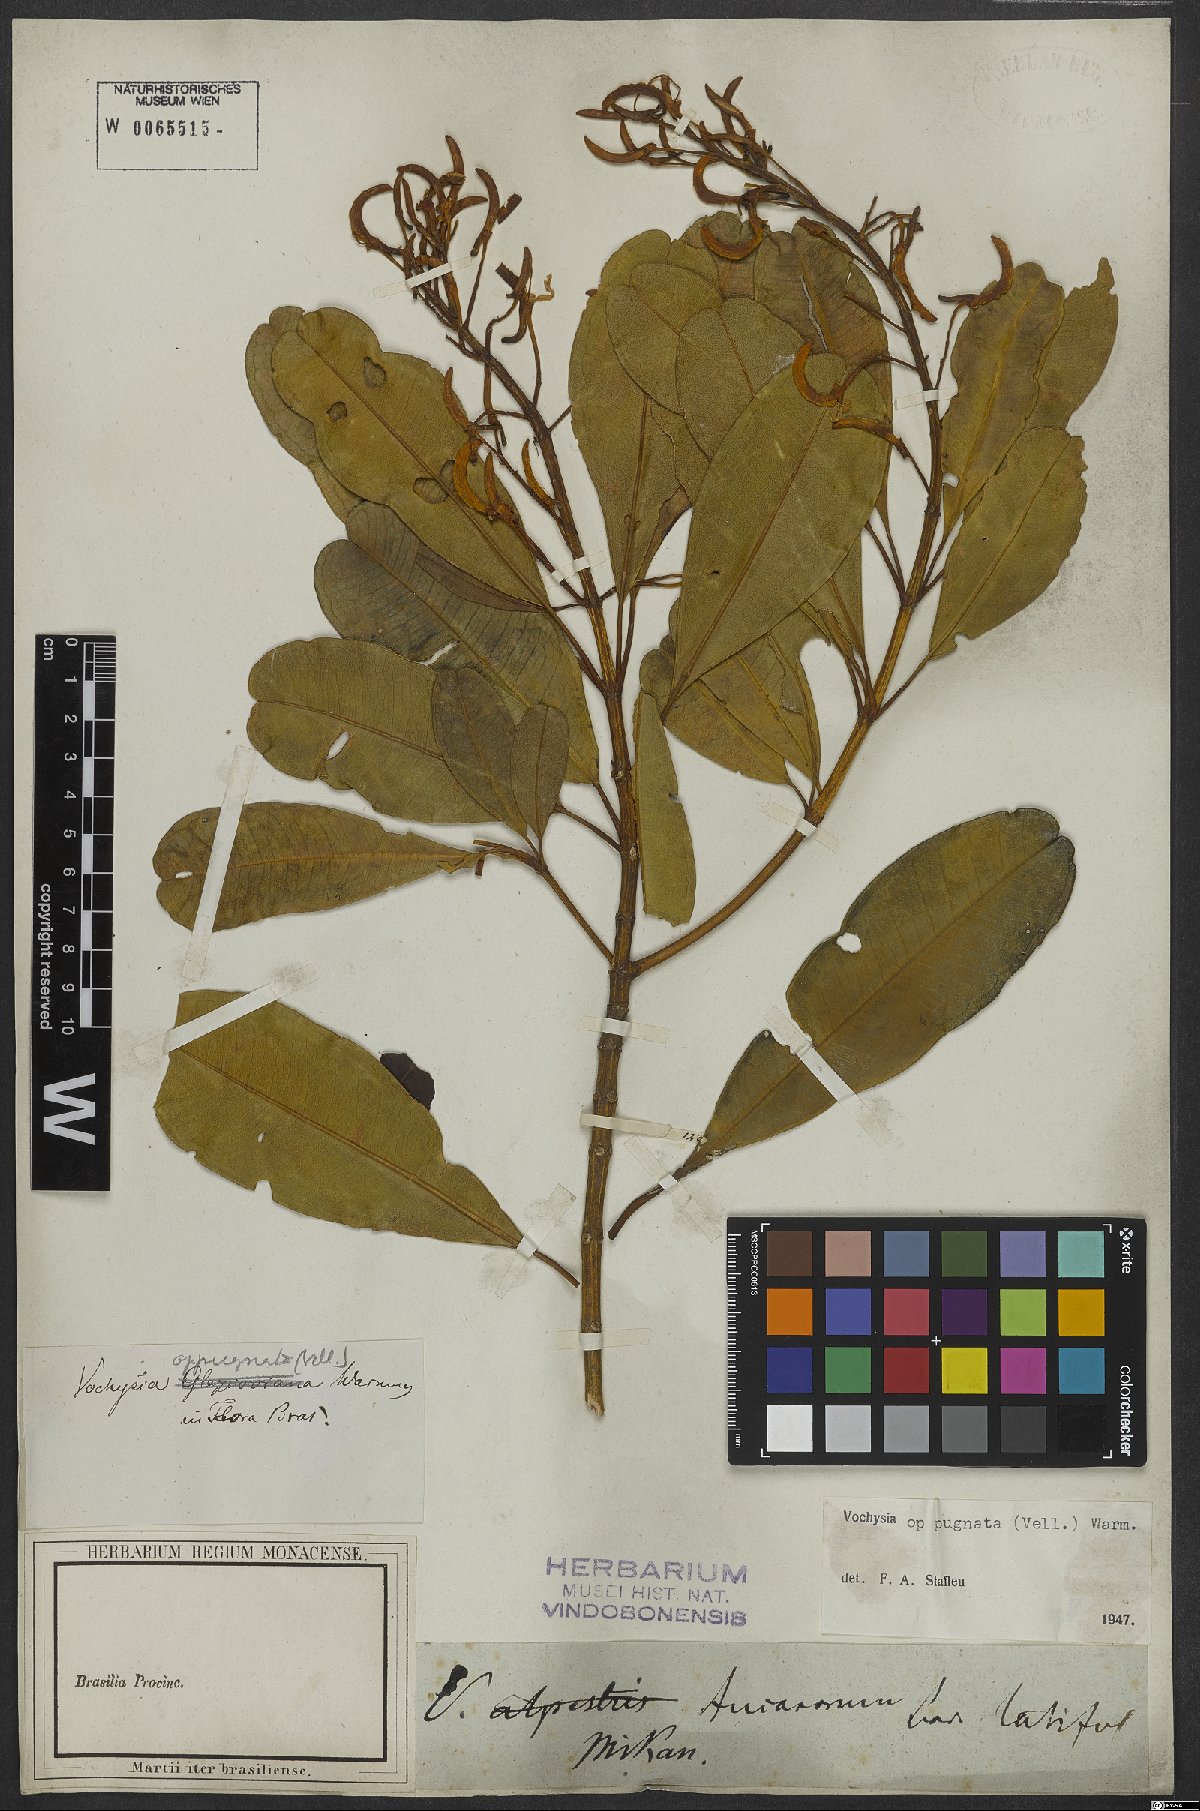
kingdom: Plantae
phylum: Tracheophyta
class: Magnoliopsida
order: Myrtales
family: Vochysiaceae
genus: Vochysia
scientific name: Vochysia oppugnata
